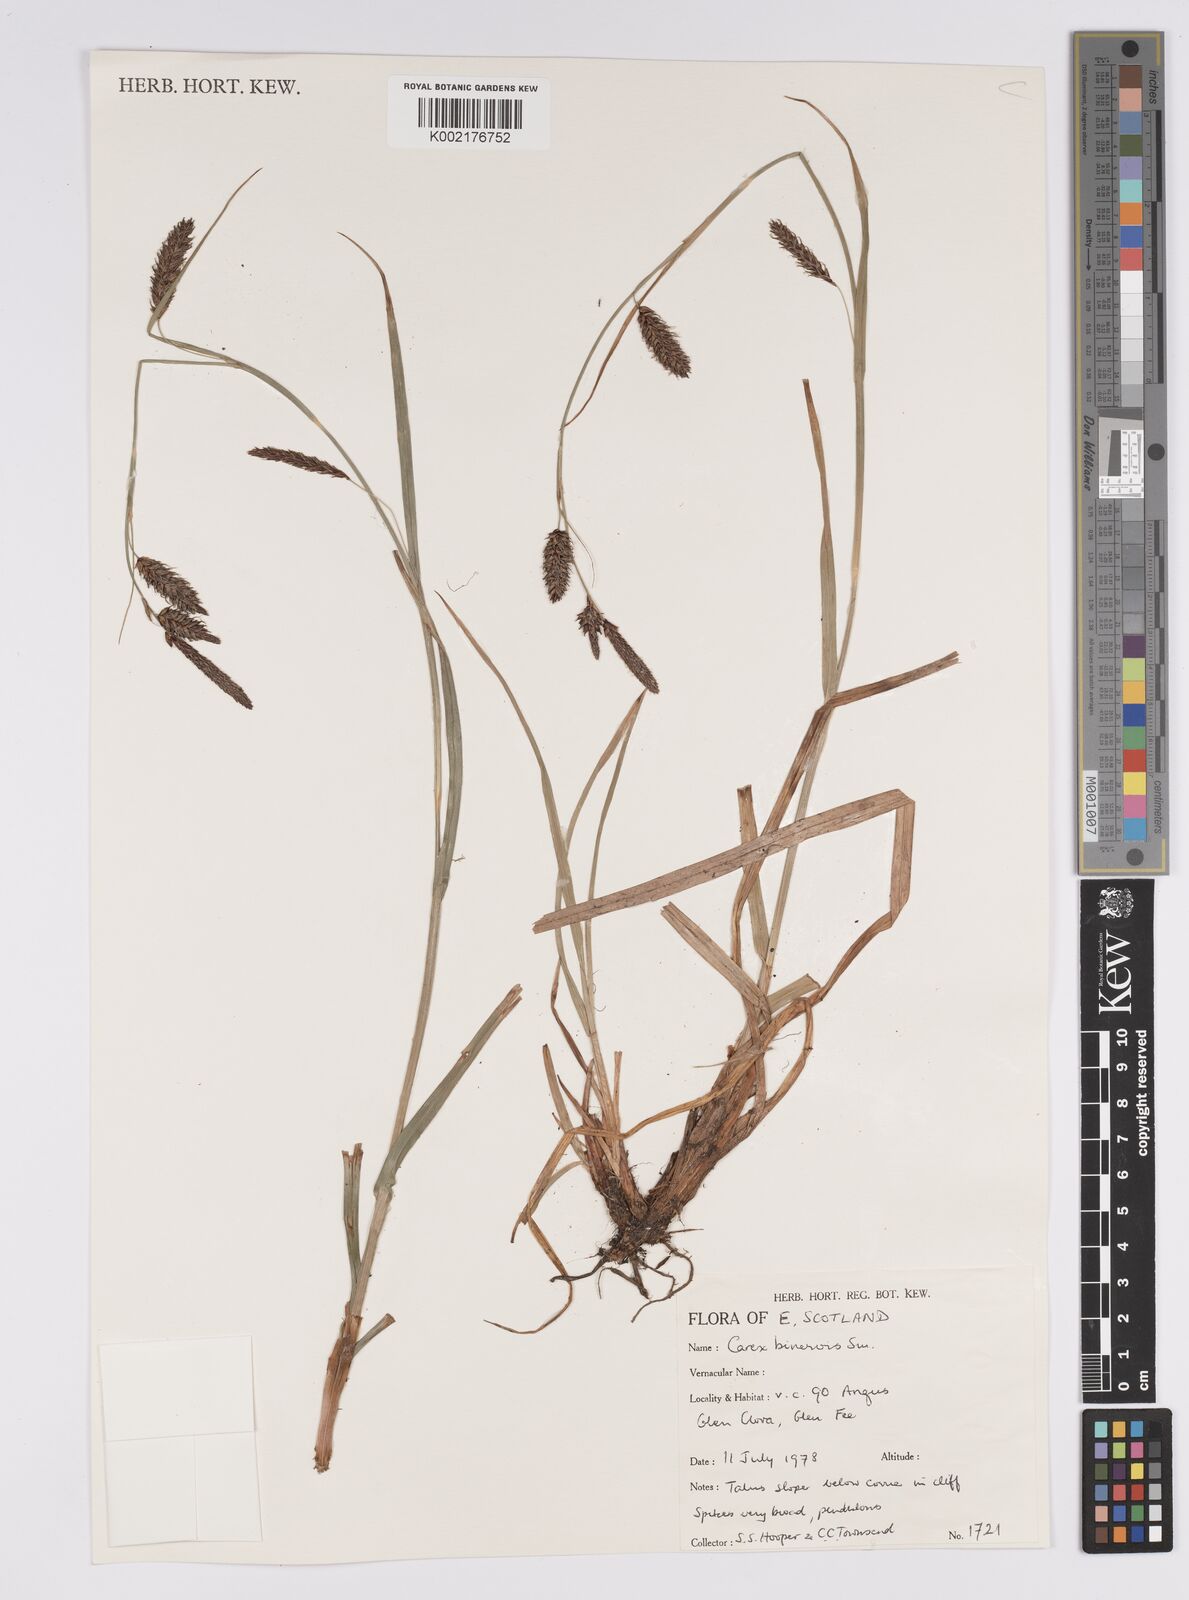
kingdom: Plantae
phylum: Tracheophyta
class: Liliopsida
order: Poales
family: Cyperaceae
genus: Carex
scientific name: Carex binervis
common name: Green-ribbed sedge
